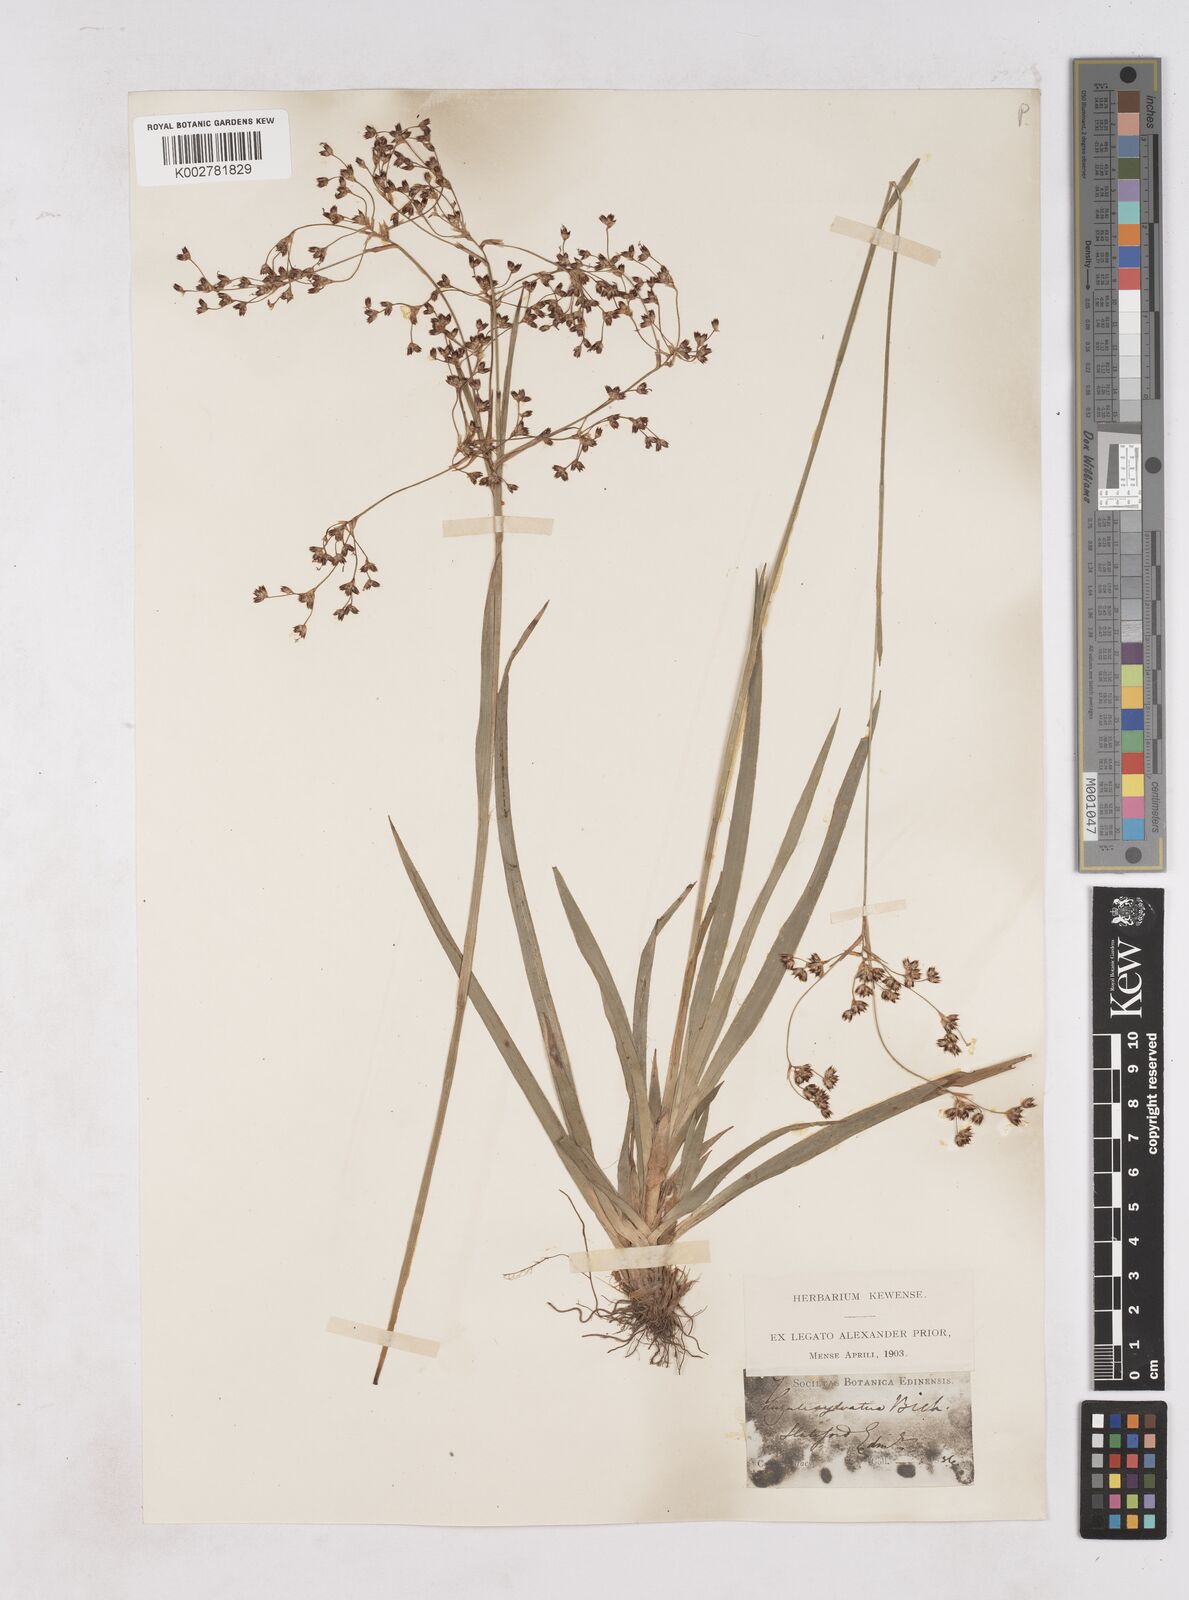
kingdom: Plantae
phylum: Tracheophyta
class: Liliopsida
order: Poales
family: Juncaceae
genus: Luzula
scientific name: Luzula sylvatica
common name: Great wood-rush
